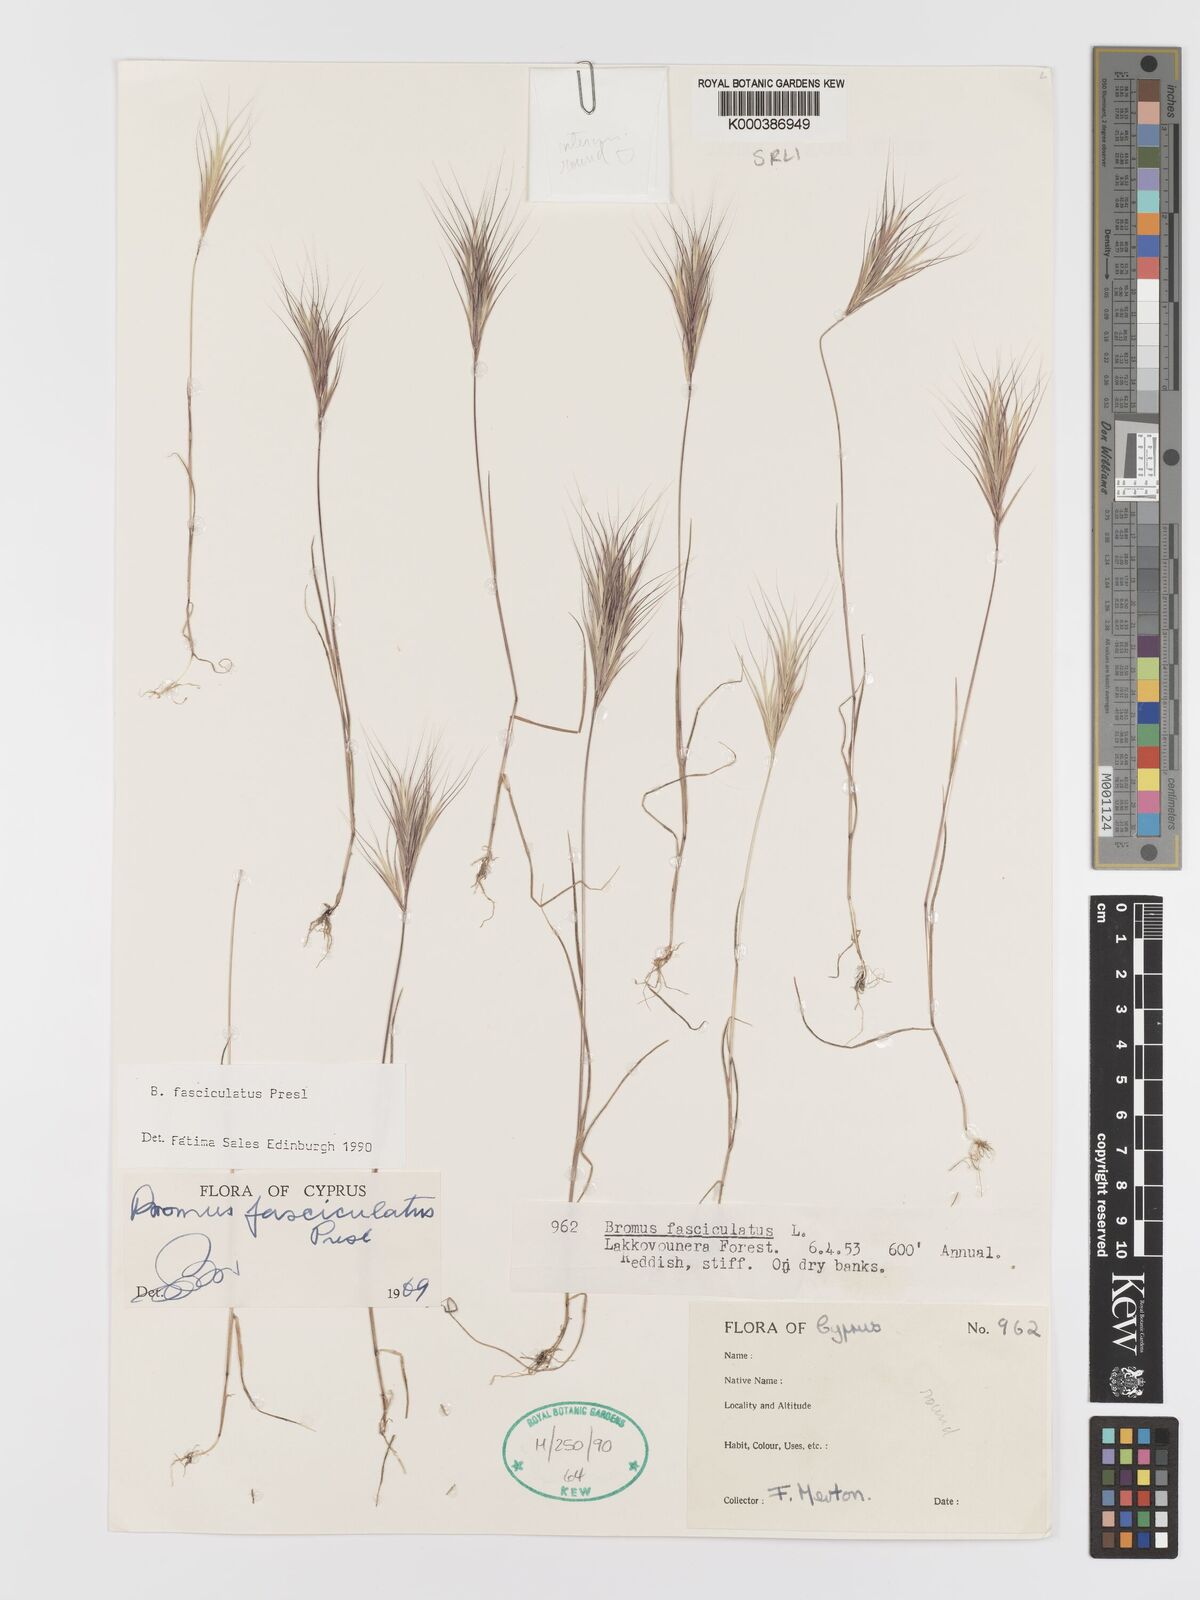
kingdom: Plantae
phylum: Tracheophyta
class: Liliopsida
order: Poales
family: Poaceae
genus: Bromus
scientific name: Bromus fasciculatus
